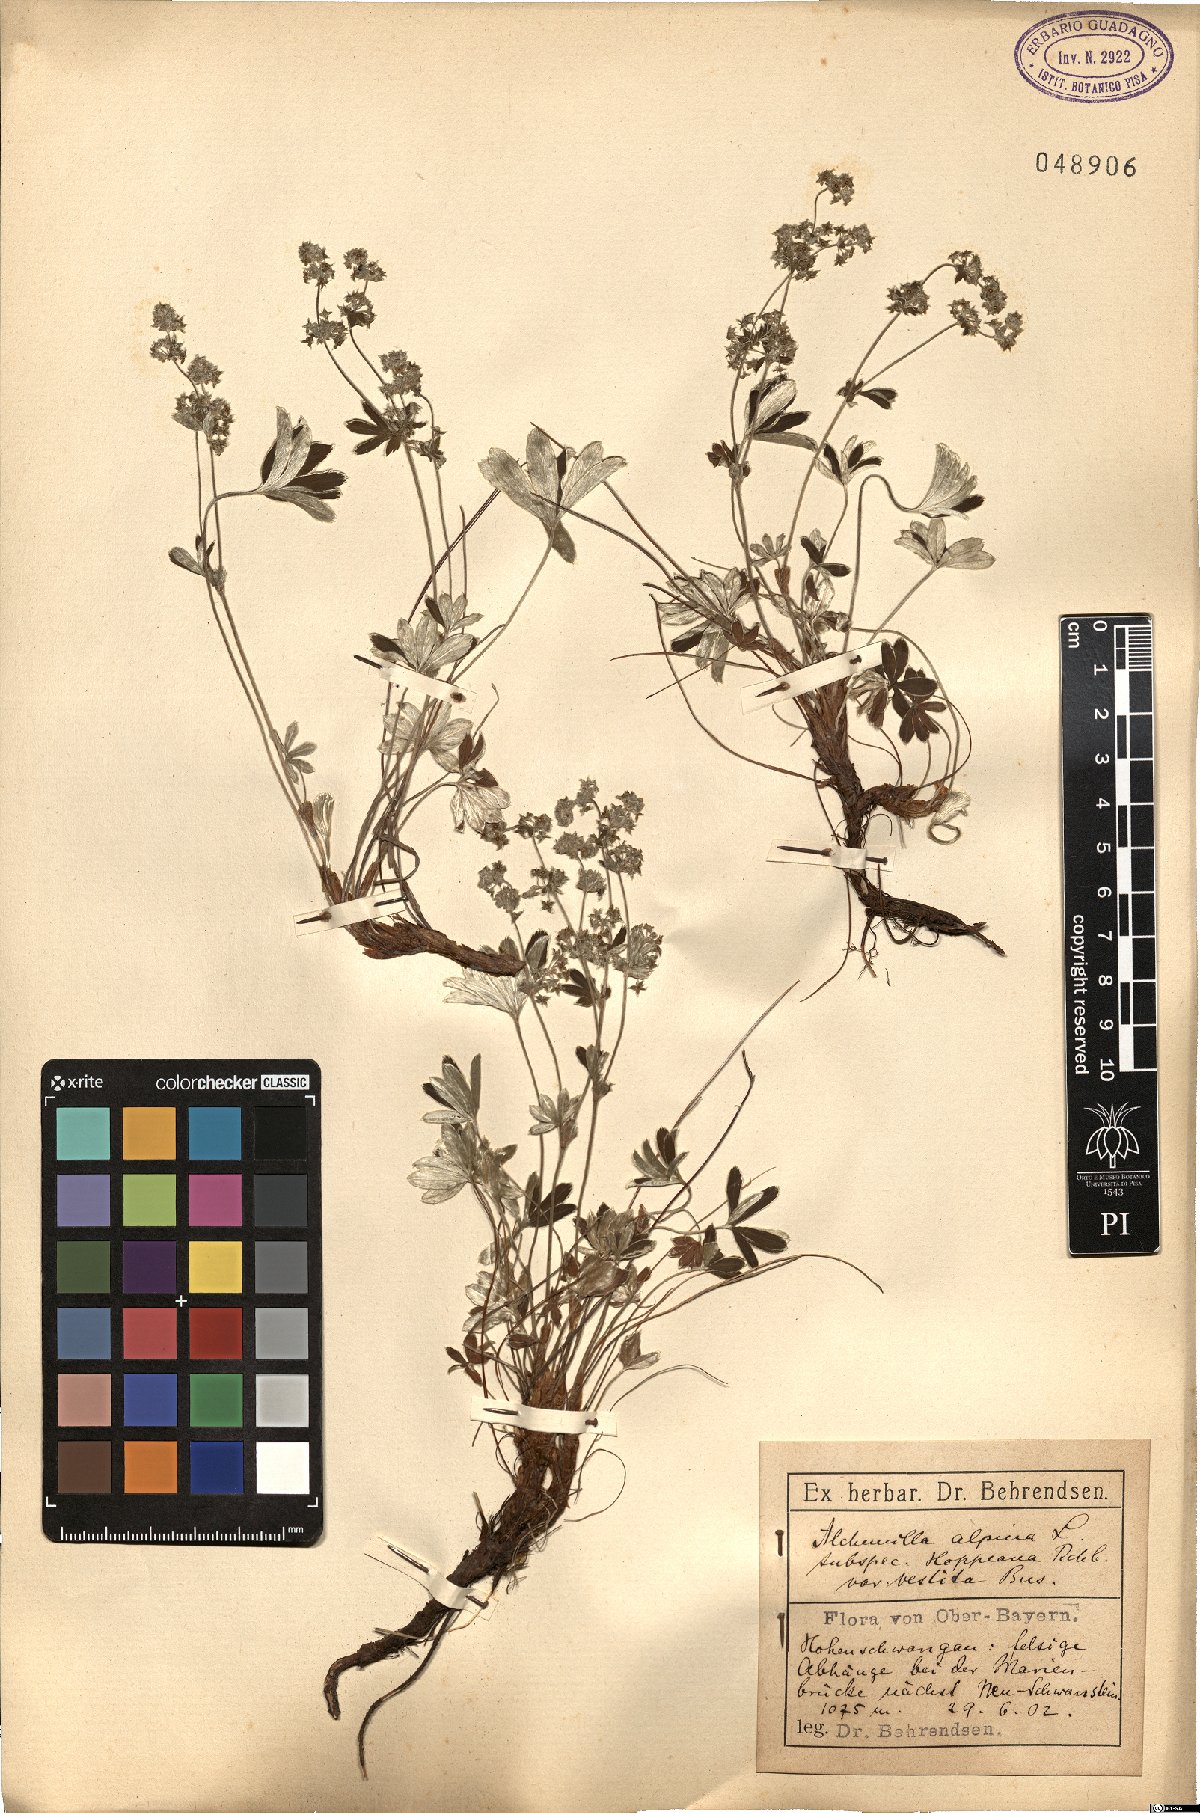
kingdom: Plantae
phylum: Tracheophyta
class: Magnoliopsida
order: Rosales
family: Rosaceae
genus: Alchemilla
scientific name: Alchemilla filicaulis
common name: Hairy lady's-mantle
